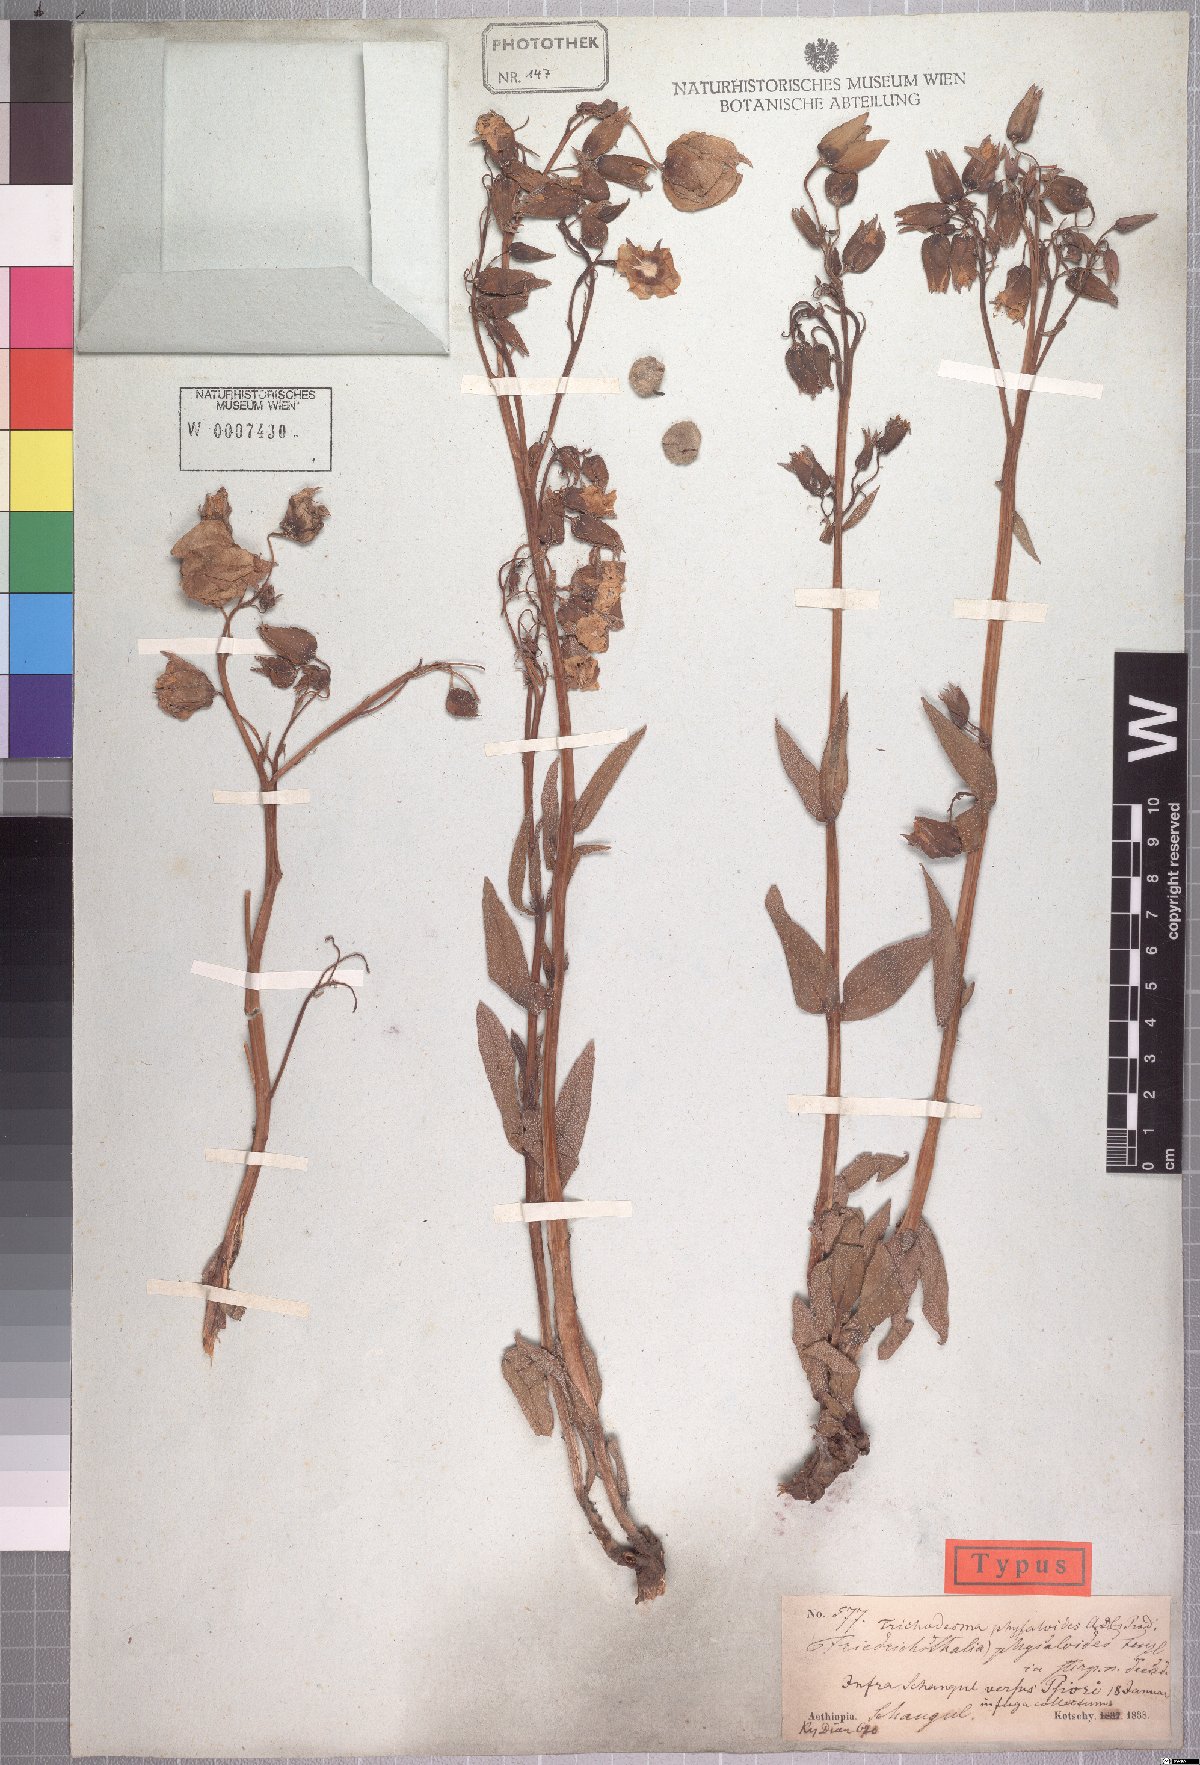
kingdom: Plantae
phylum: Tracheophyta
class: Magnoliopsida
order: Boraginales
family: Boraginaceae
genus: Trichodesma
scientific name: Trichodesma physaloides
